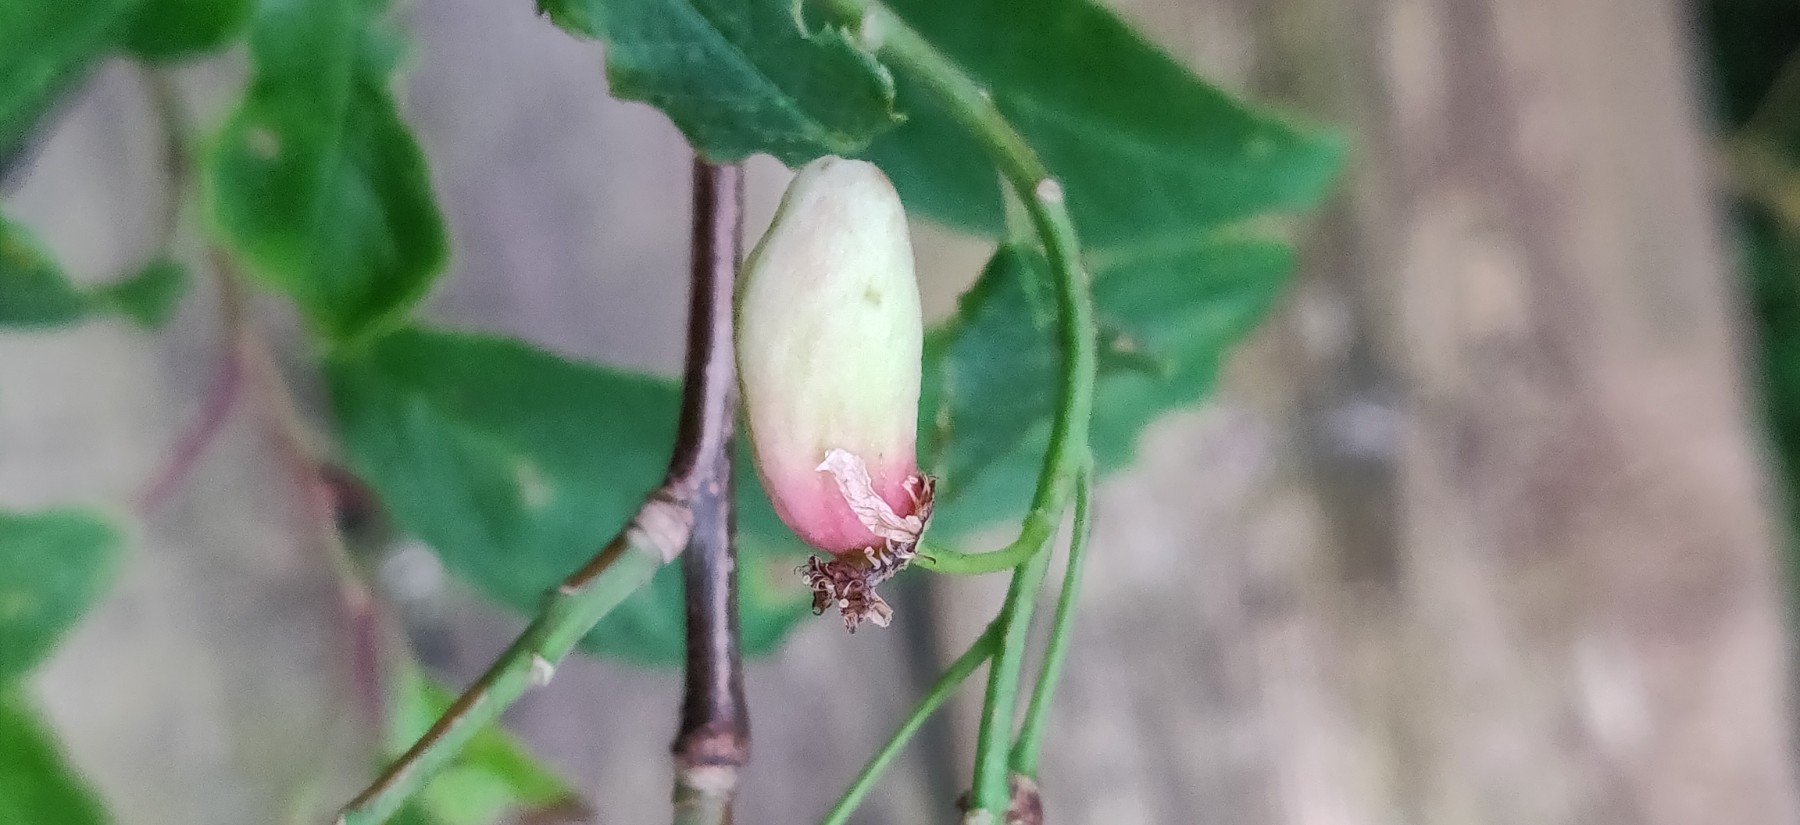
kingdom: Fungi
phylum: Ascomycota
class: Taphrinomycetes
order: Taphrinales
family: Taphrinaceae
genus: Taphrina
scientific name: Taphrina padi
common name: Bird cherry pocket
